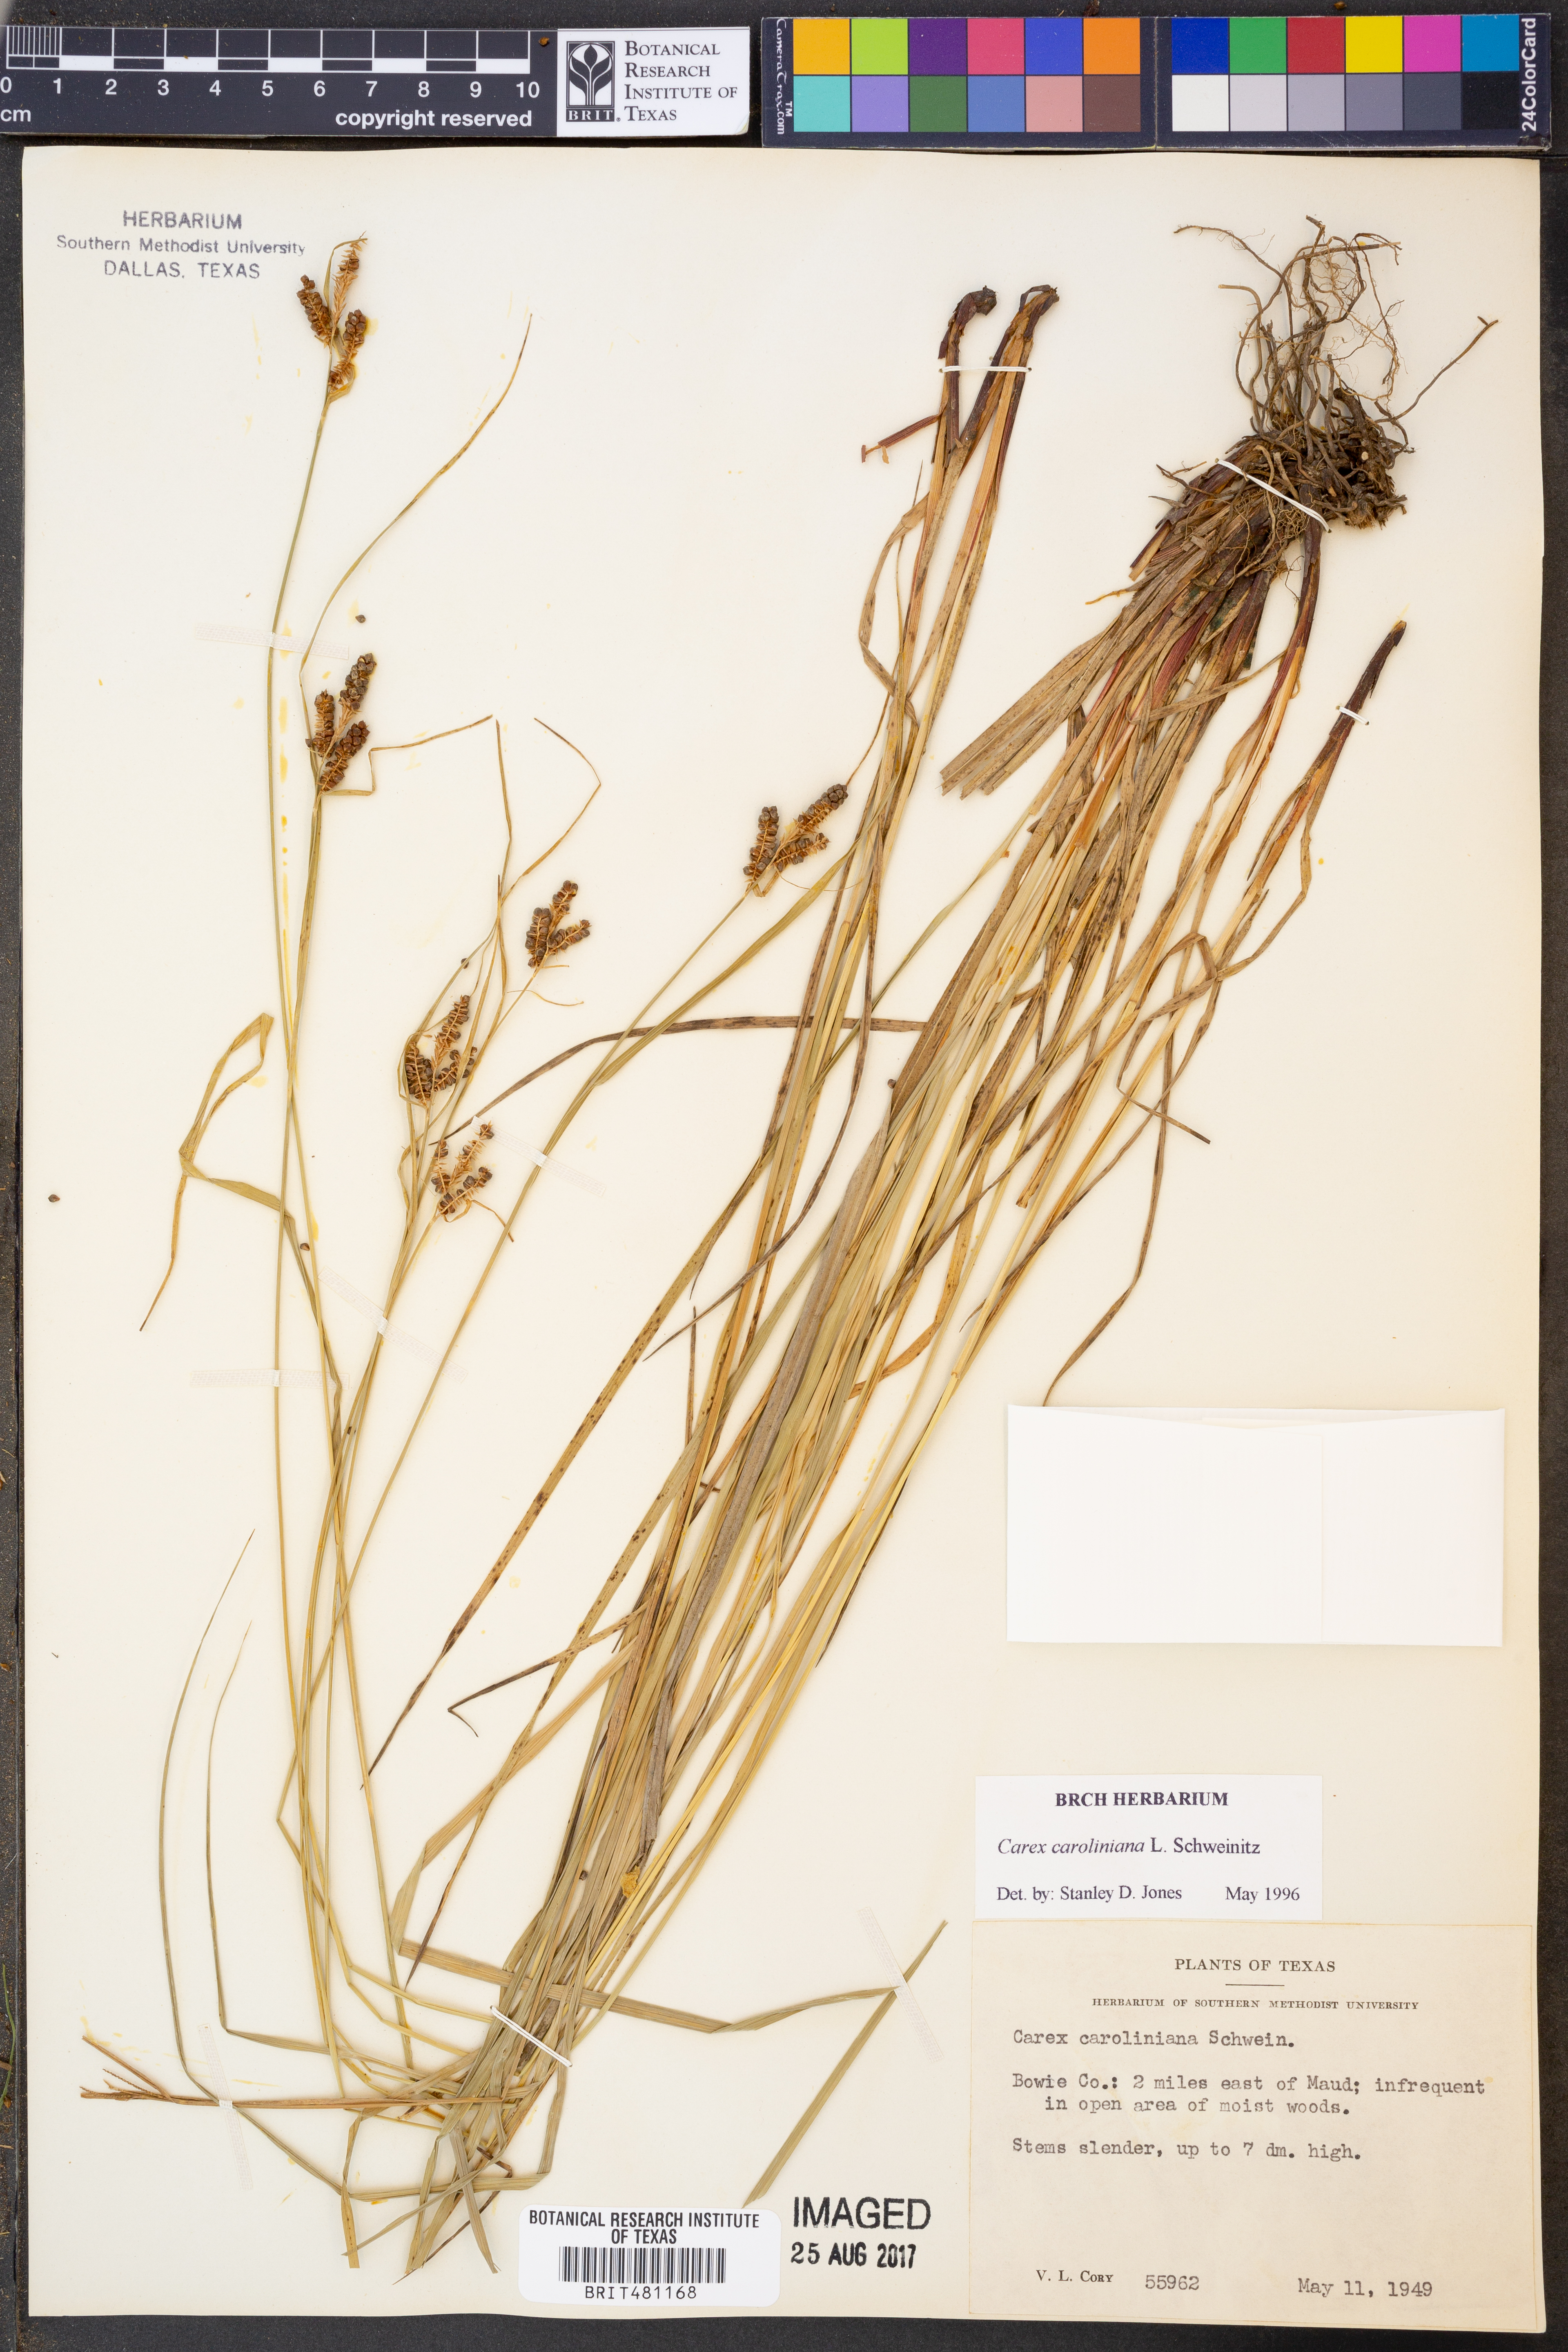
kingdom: Plantae
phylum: Tracheophyta
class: Liliopsida
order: Poales
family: Cyperaceae
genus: Carex
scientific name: Carex caroliniana
